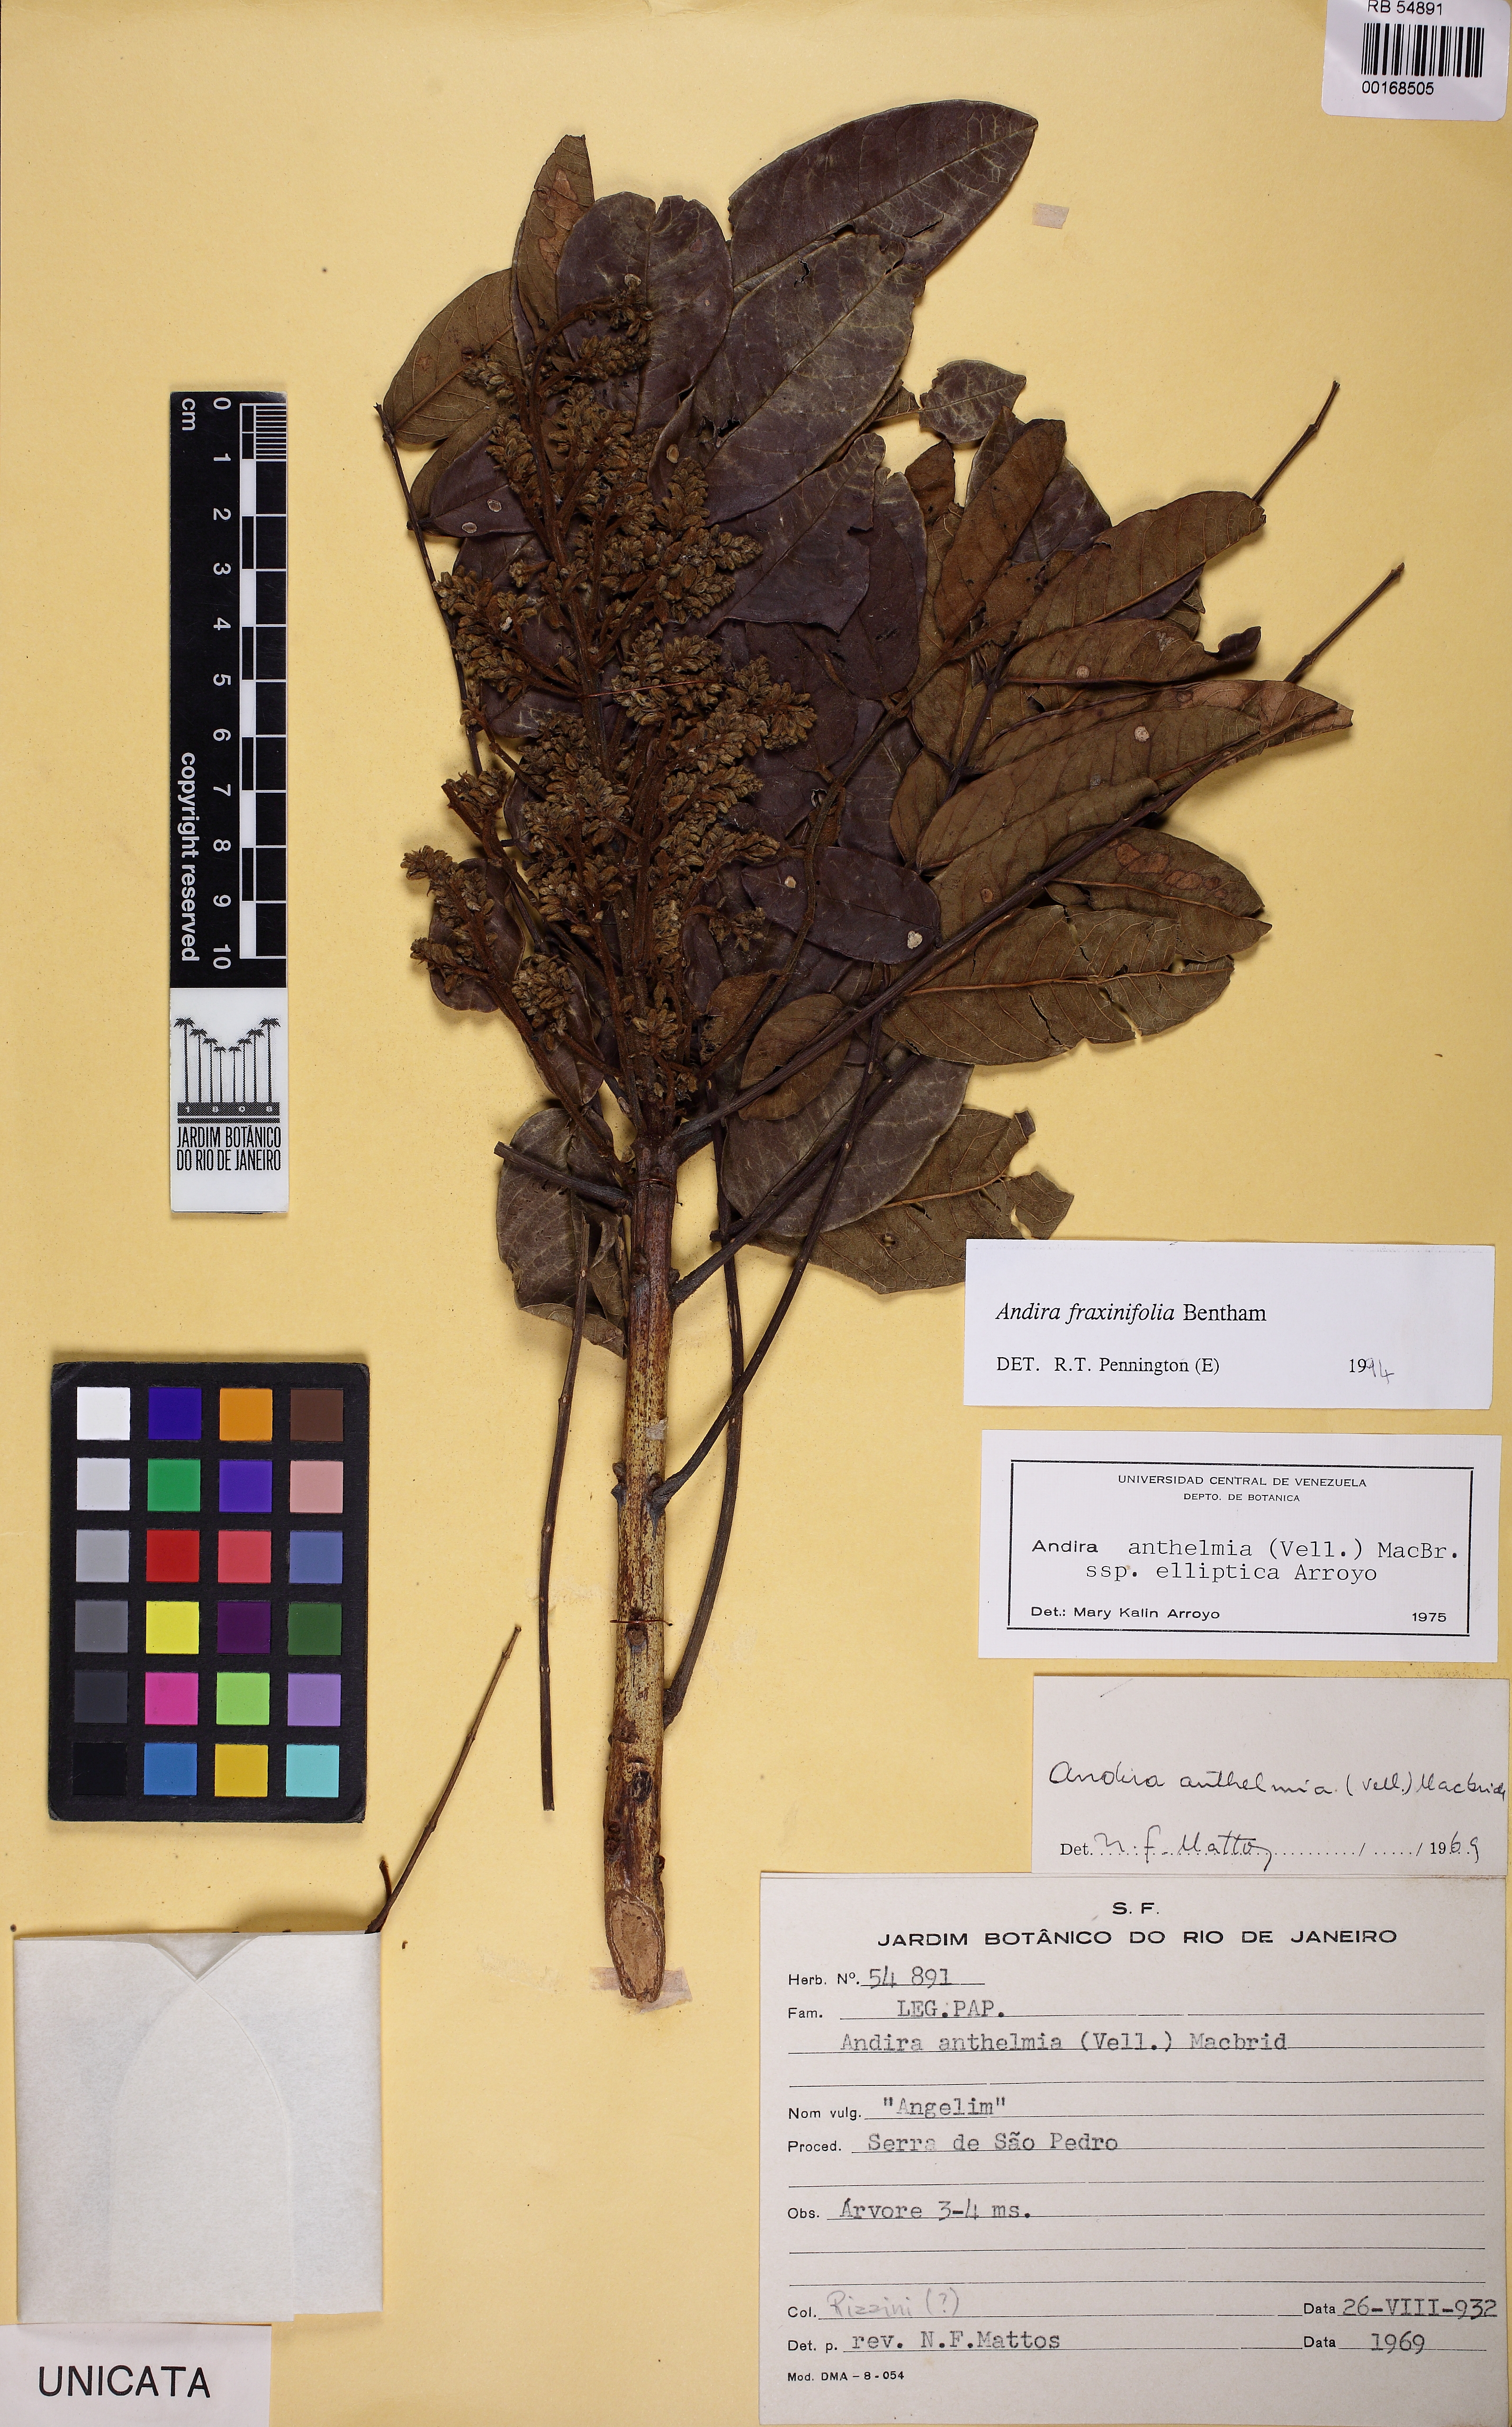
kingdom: Plantae
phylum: Tracheophyta
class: Magnoliopsida
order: Fabales
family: Fabaceae
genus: Andira
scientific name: Andira fraxinifolia
